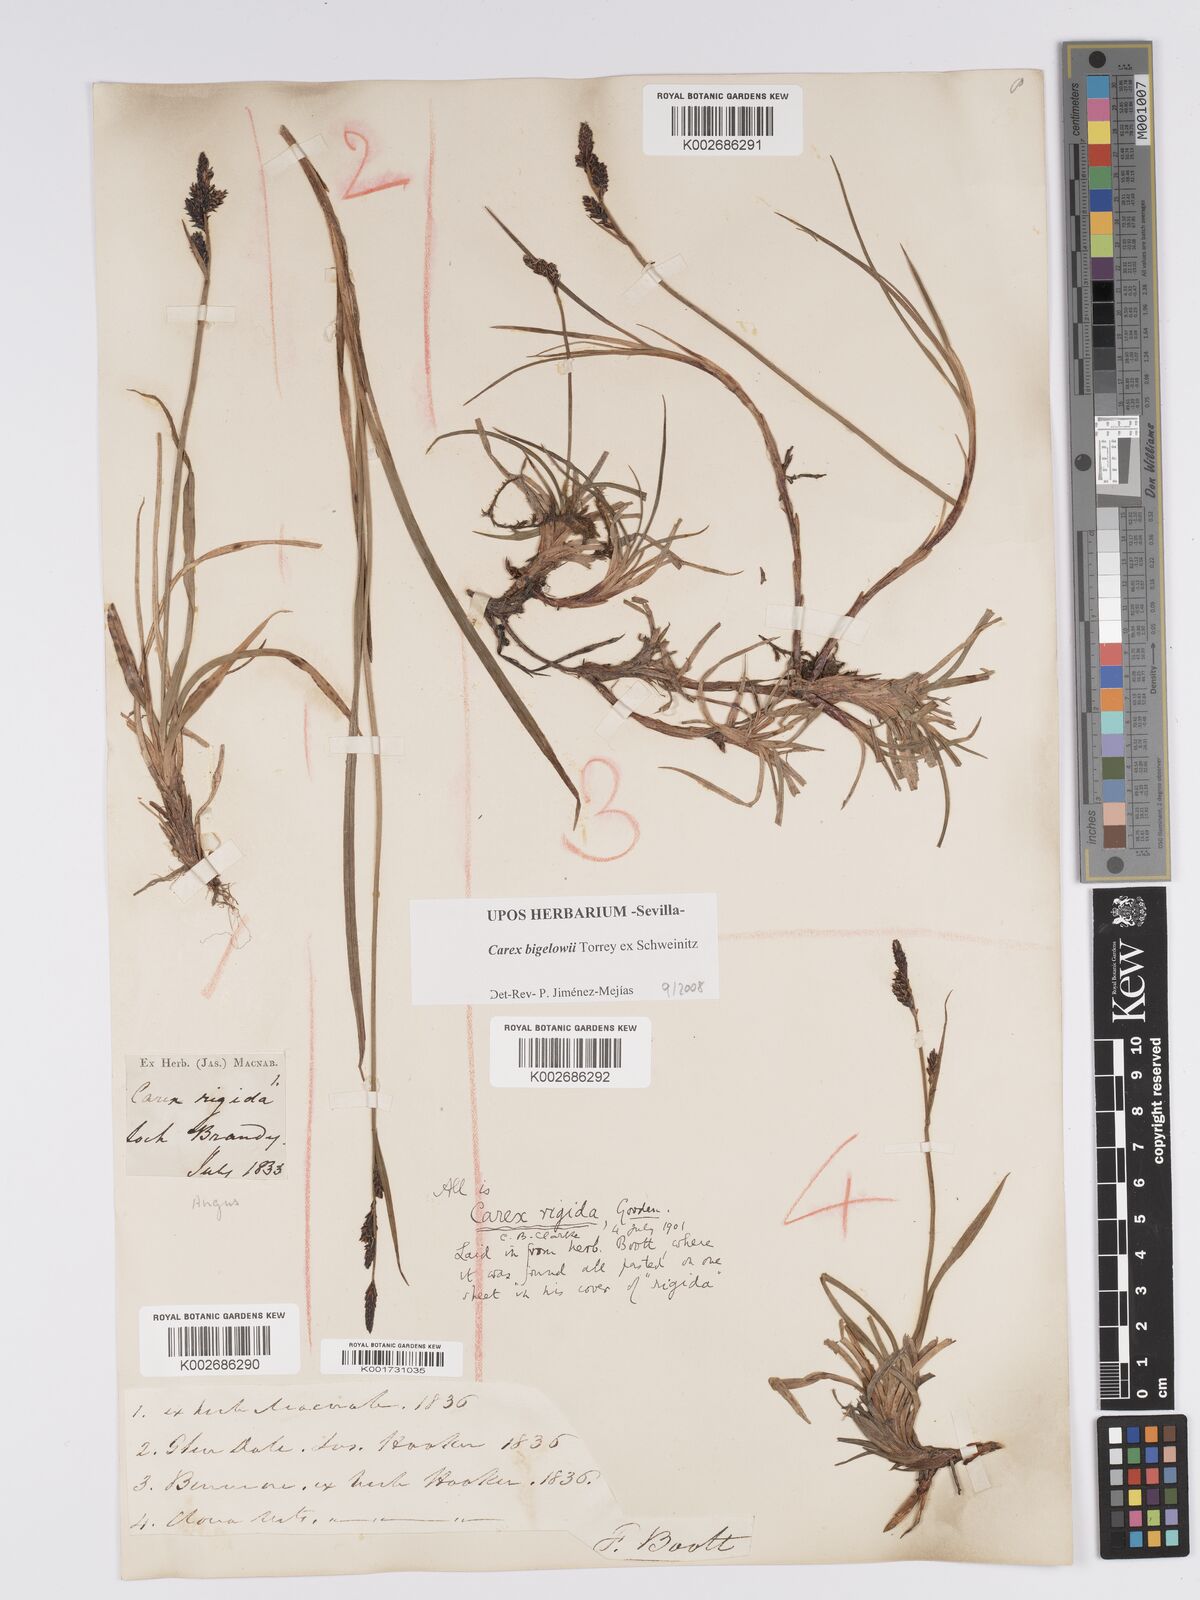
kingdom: Plantae
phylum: Tracheophyta
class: Liliopsida
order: Poales
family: Cyperaceae
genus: Carex
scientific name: Carex bigelowii
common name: Stiff sedge
